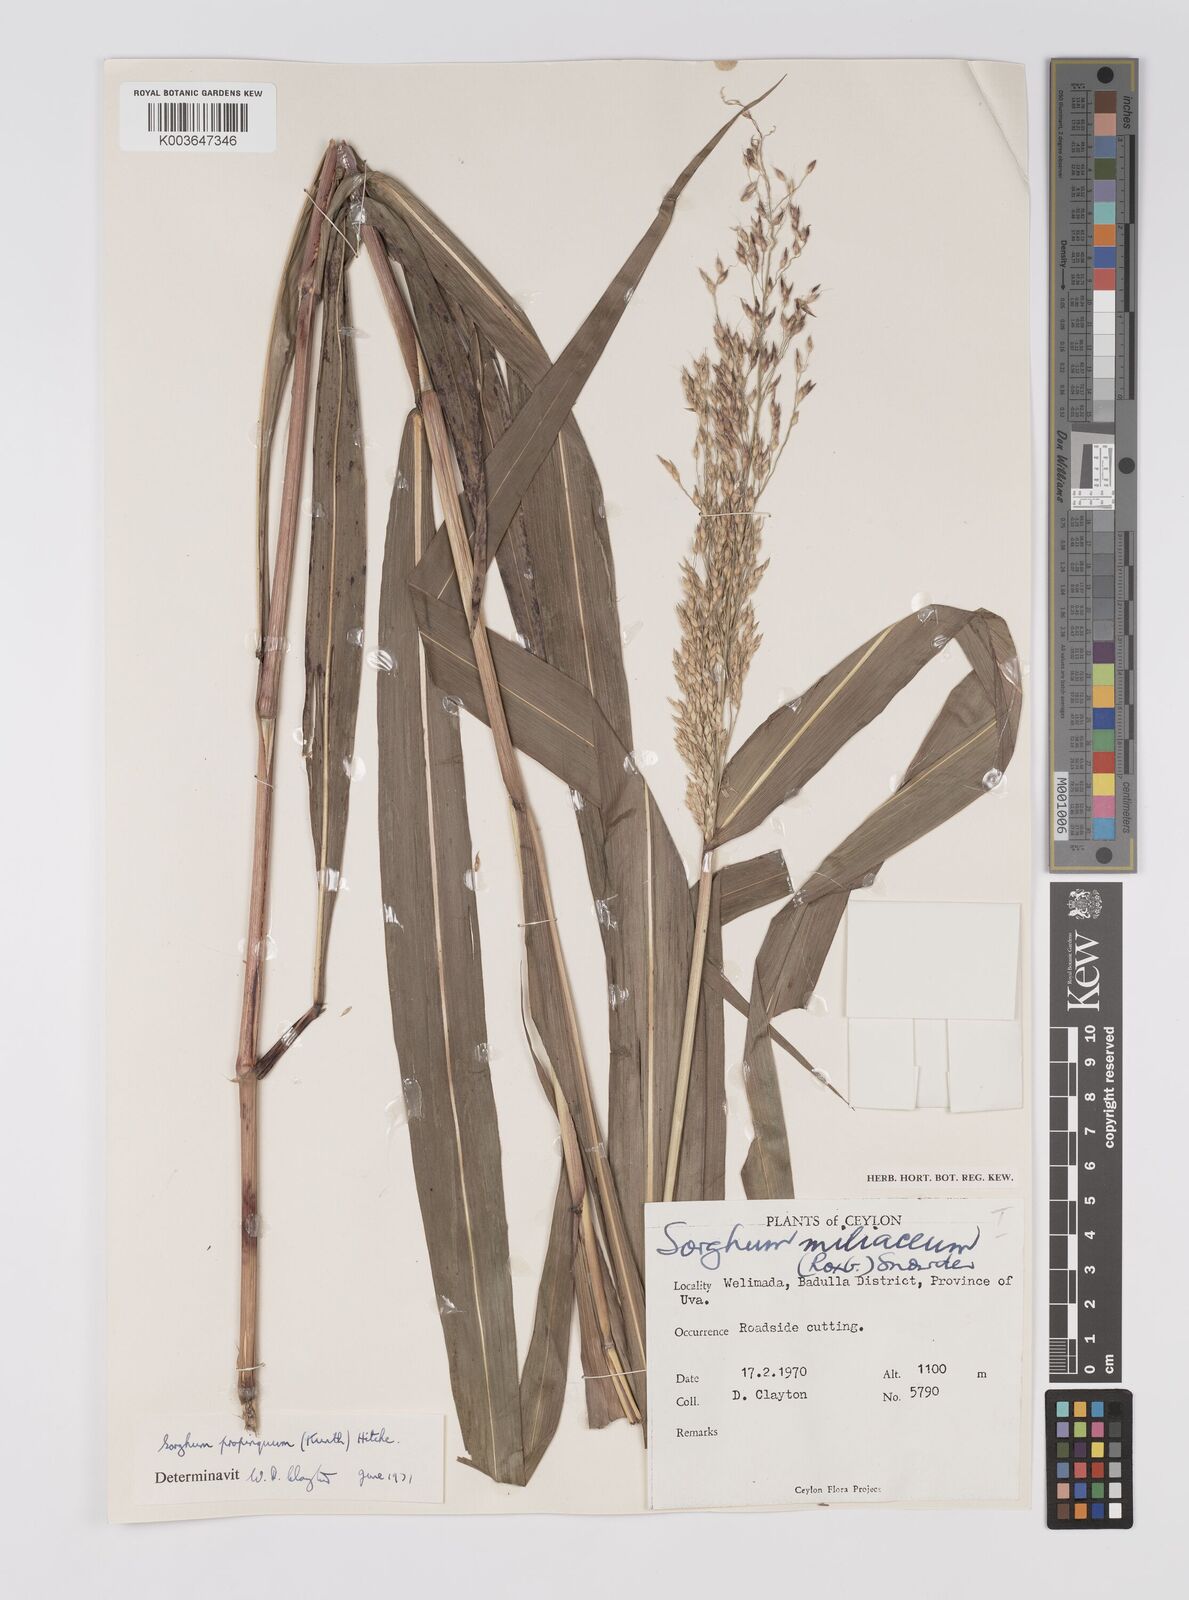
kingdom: Plantae
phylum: Tracheophyta
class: Liliopsida
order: Poales
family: Poaceae
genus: Sorghum
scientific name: Sorghum propinquum
